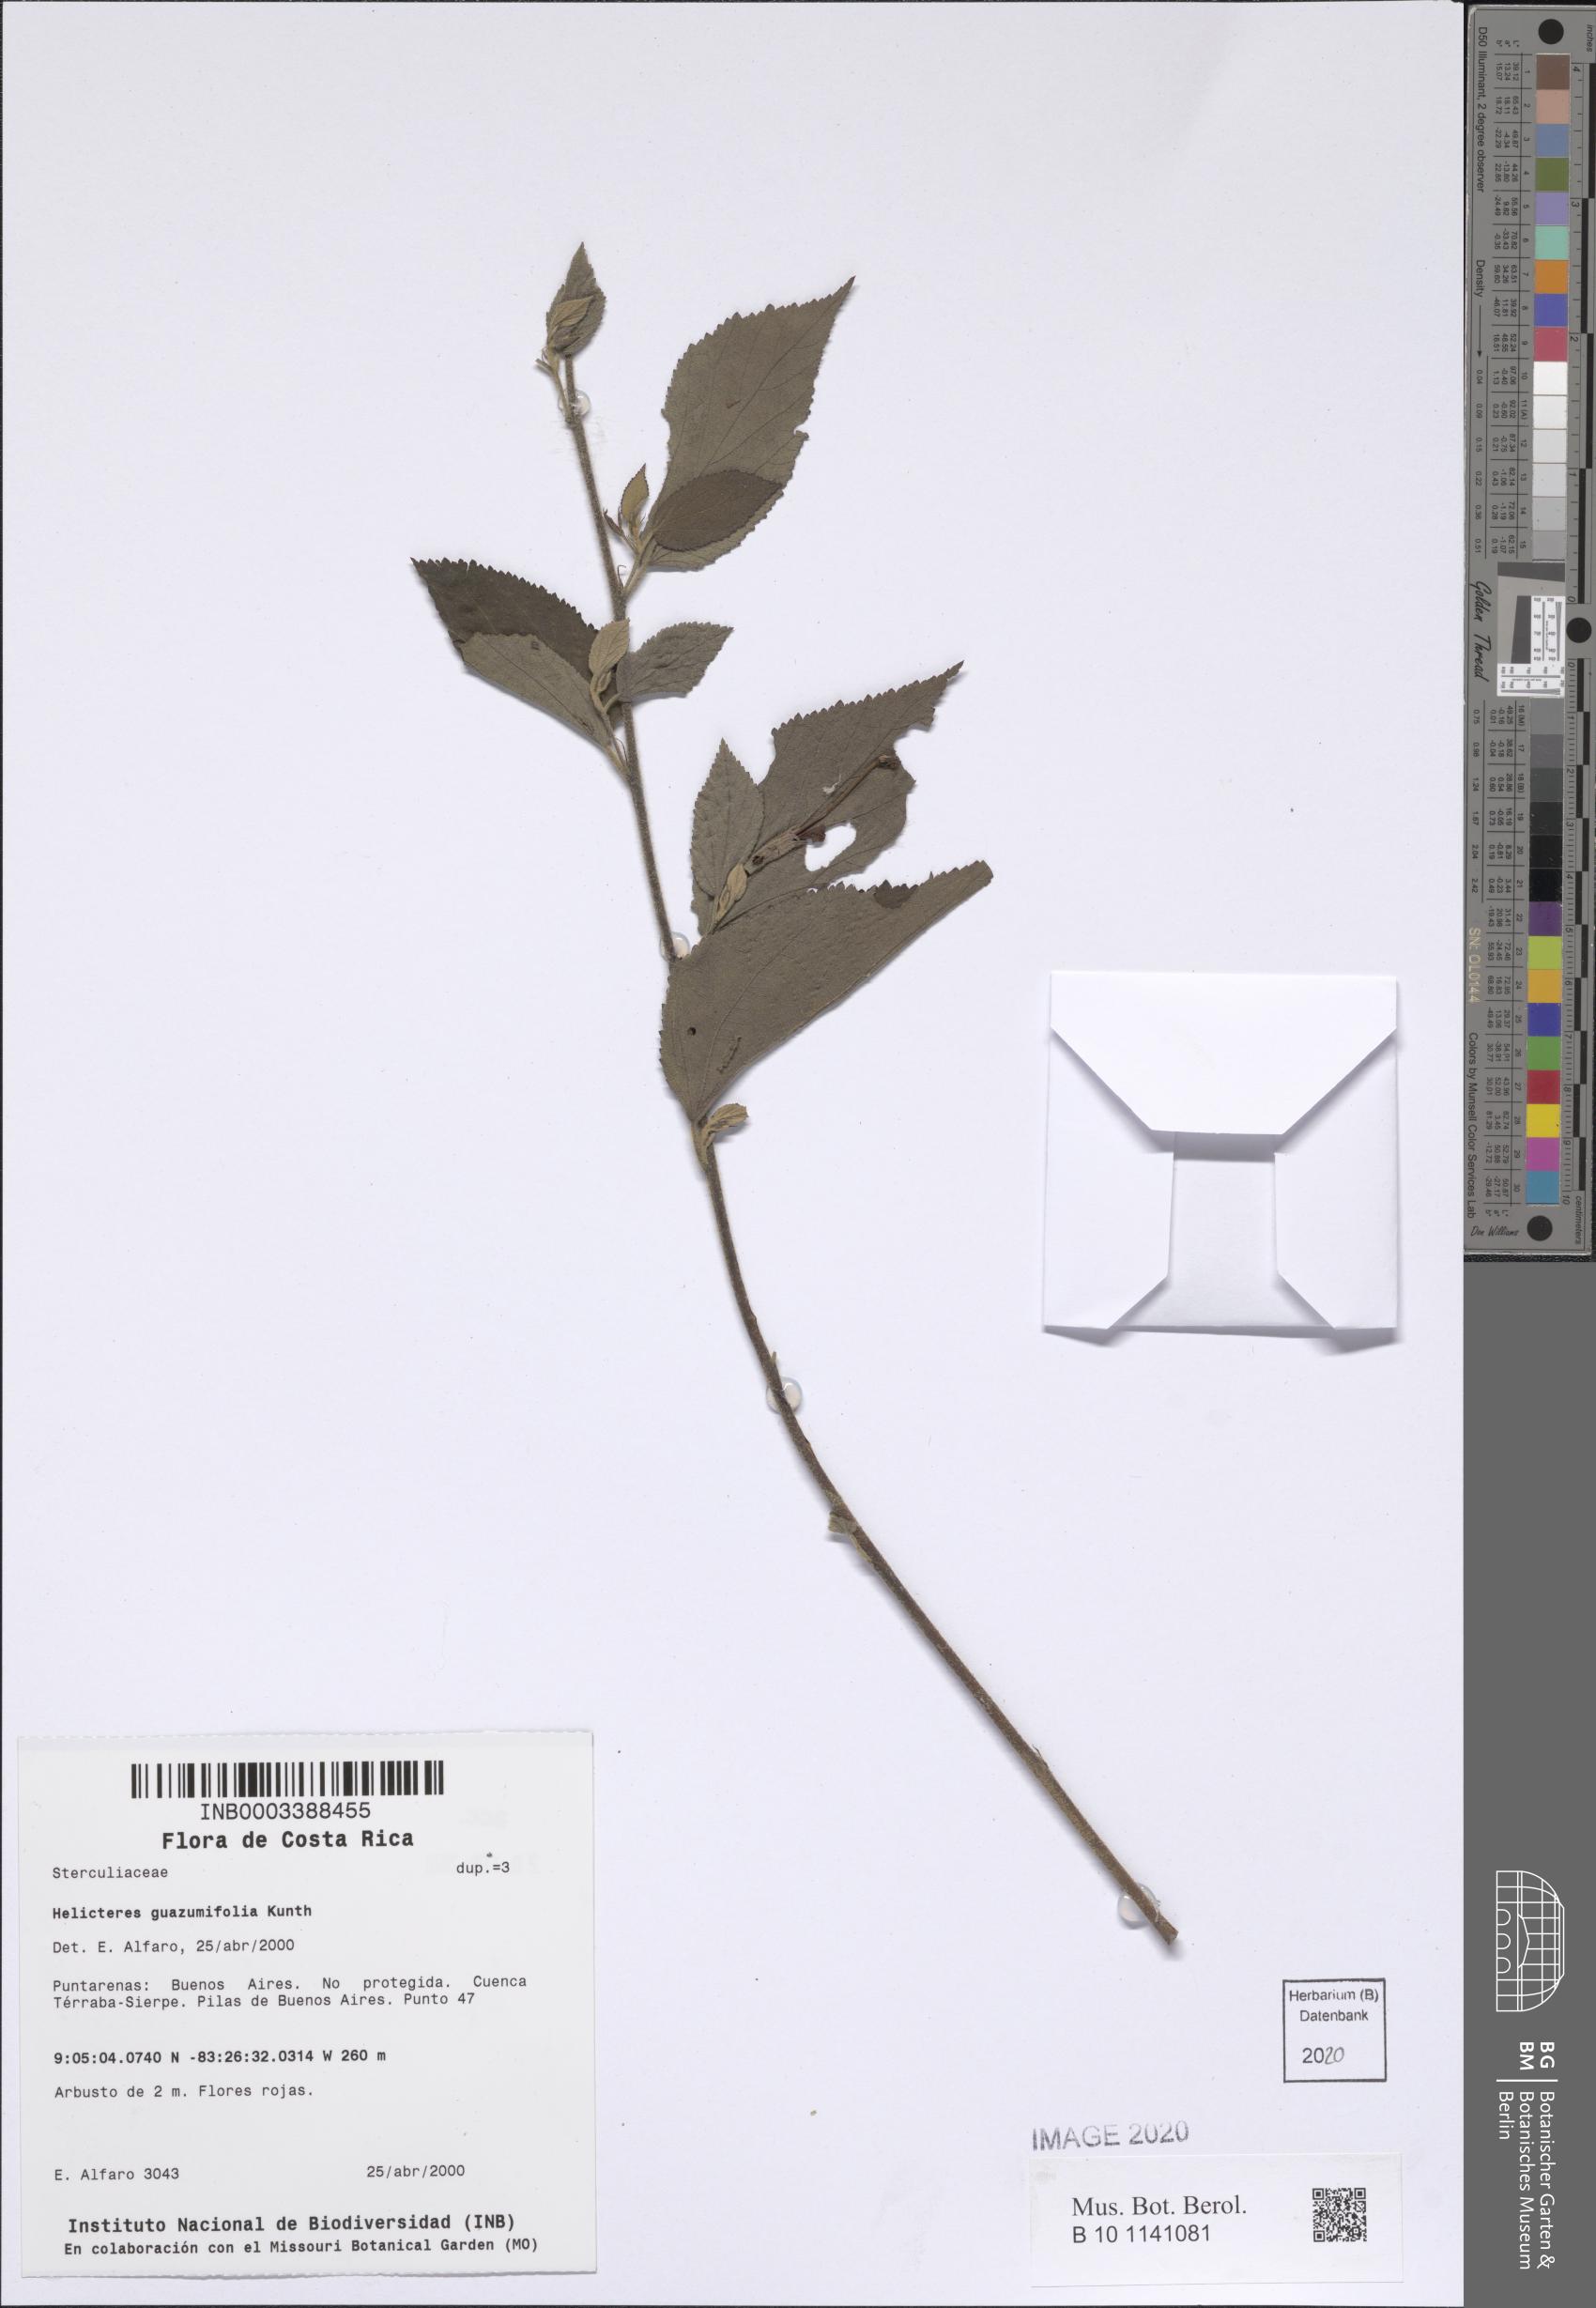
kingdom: Plantae
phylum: Tracheophyta
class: Magnoliopsida
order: Malvales
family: Malvaceae
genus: Helicteres
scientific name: Helicteres guazumifolia
